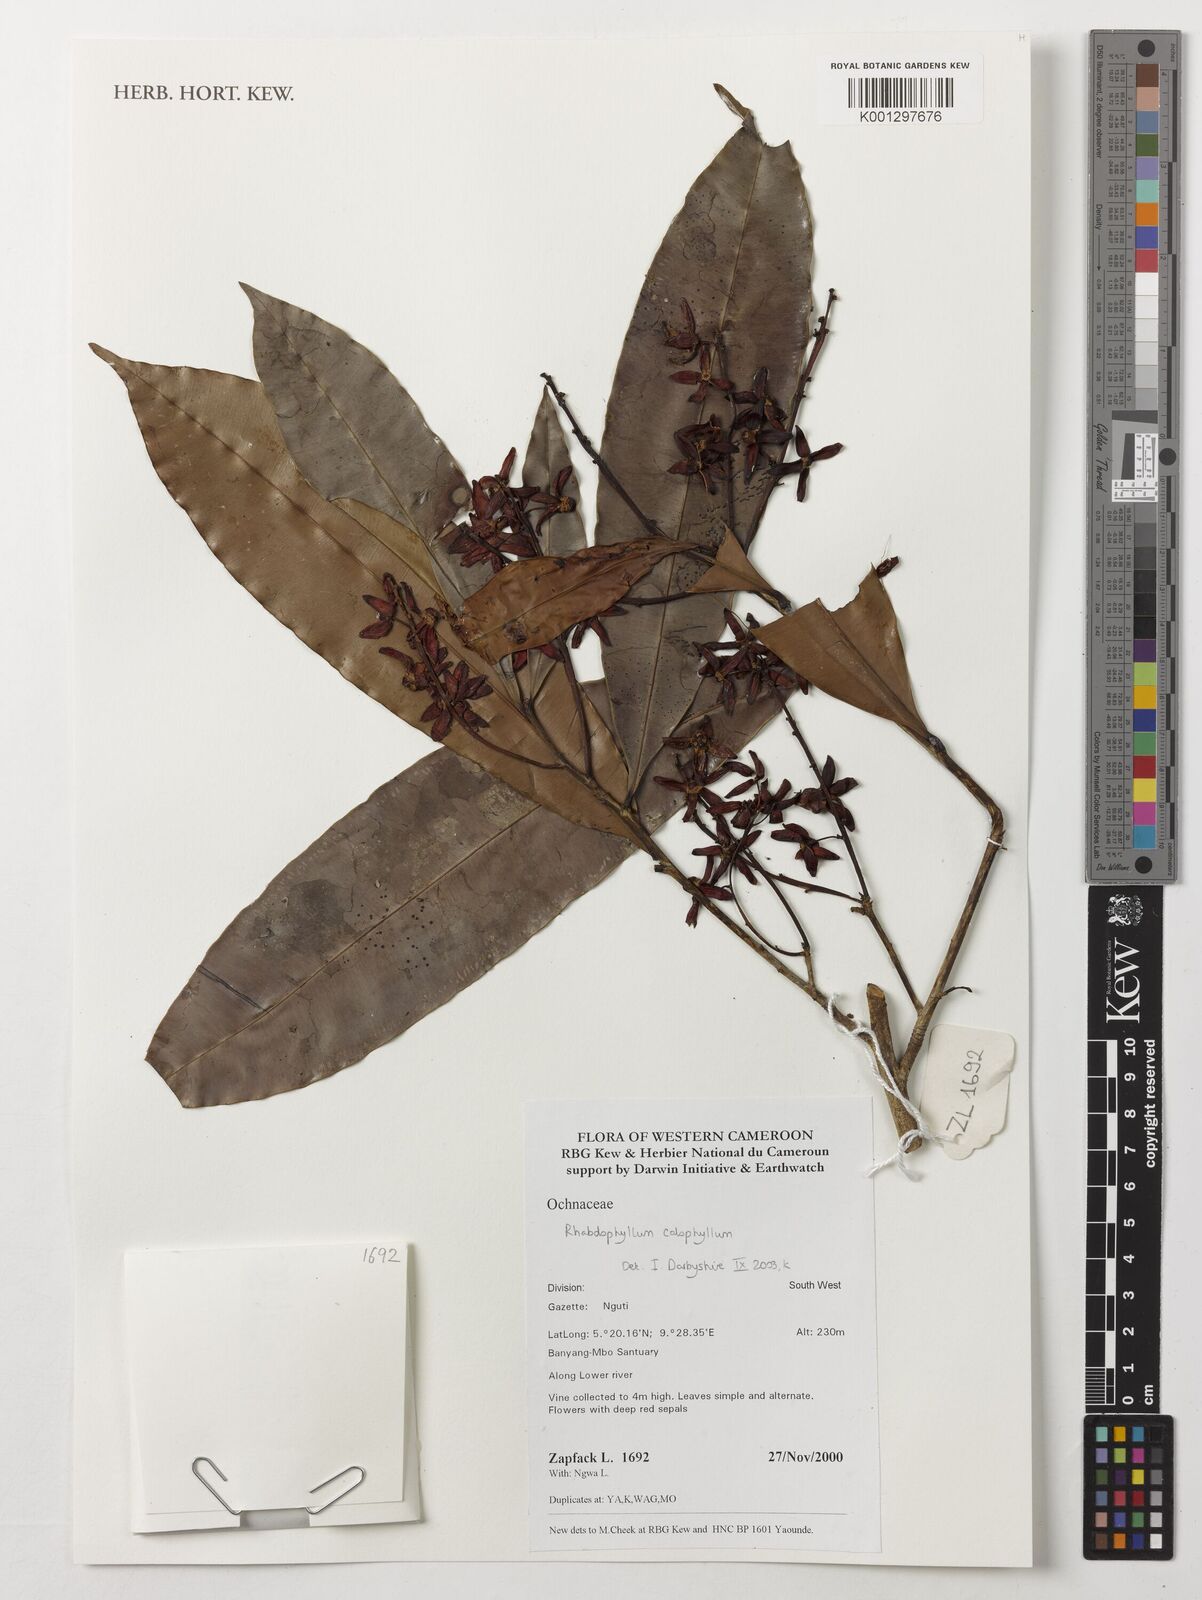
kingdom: Plantae
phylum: Tracheophyta
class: Magnoliopsida
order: Malpighiales
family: Ochnaceae
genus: Rhabdophyllum
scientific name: Rhabdophyllum calophyllum
